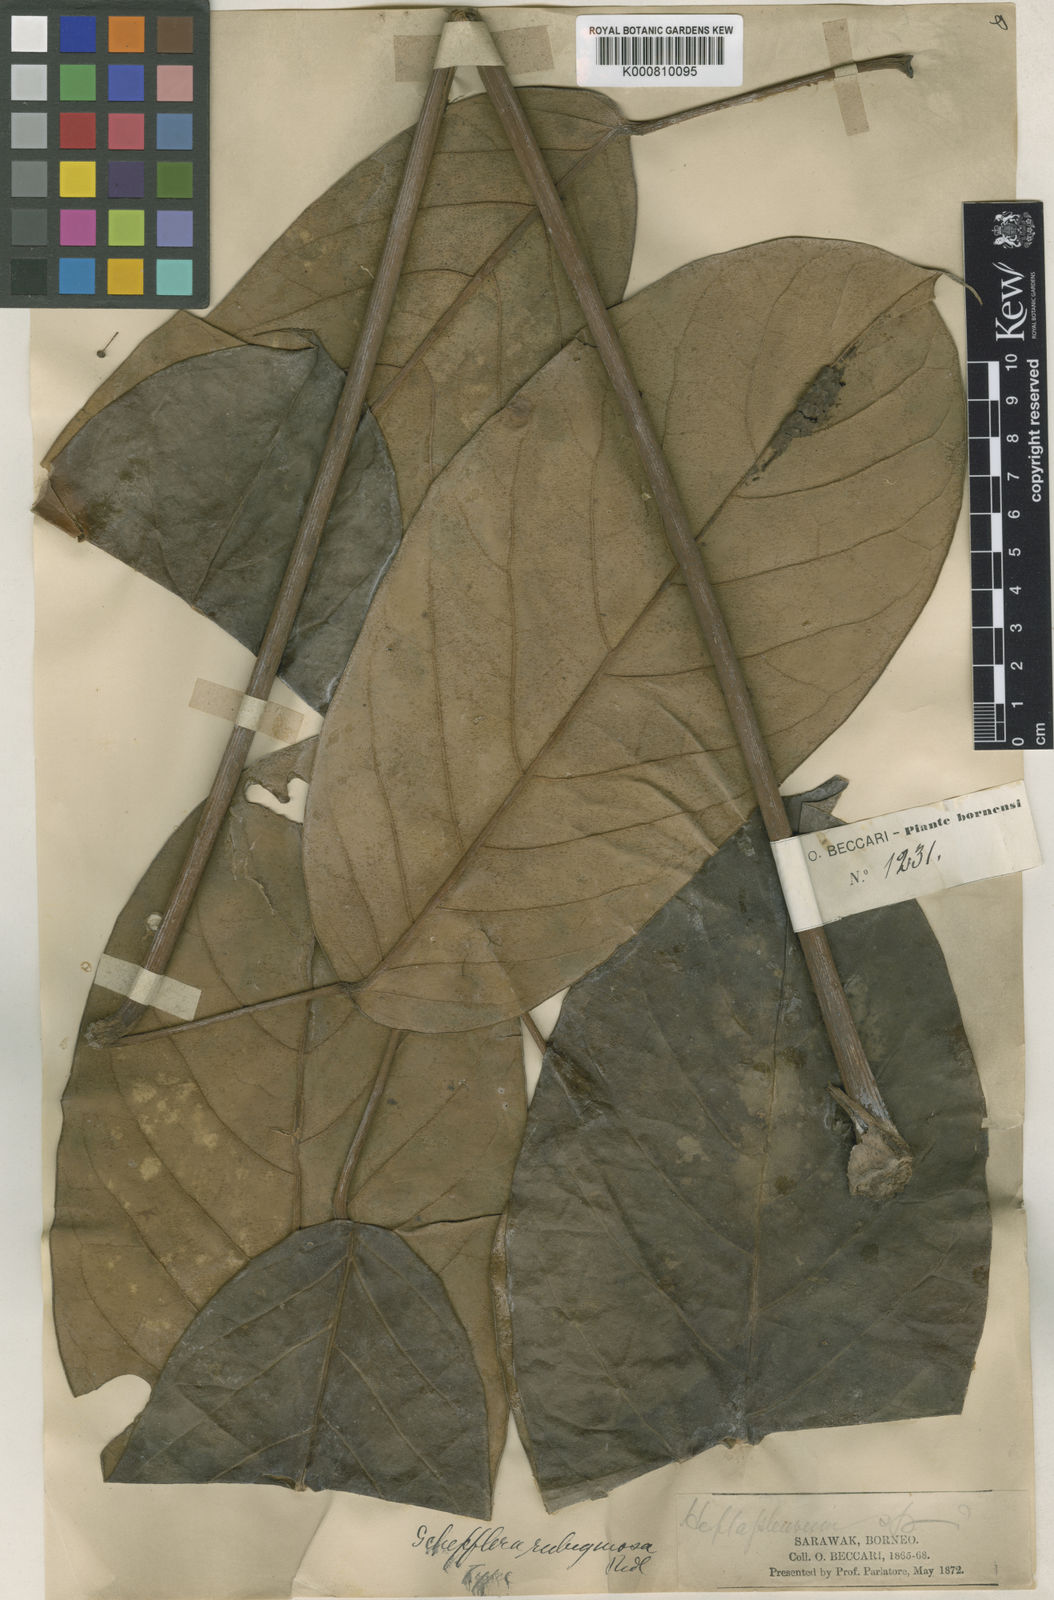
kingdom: Plantae
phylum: Tracheophyta
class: Magnoliopsida
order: Apiales
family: Araliaceae
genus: Heptapleurum
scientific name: Heptapleurum beccarianum
